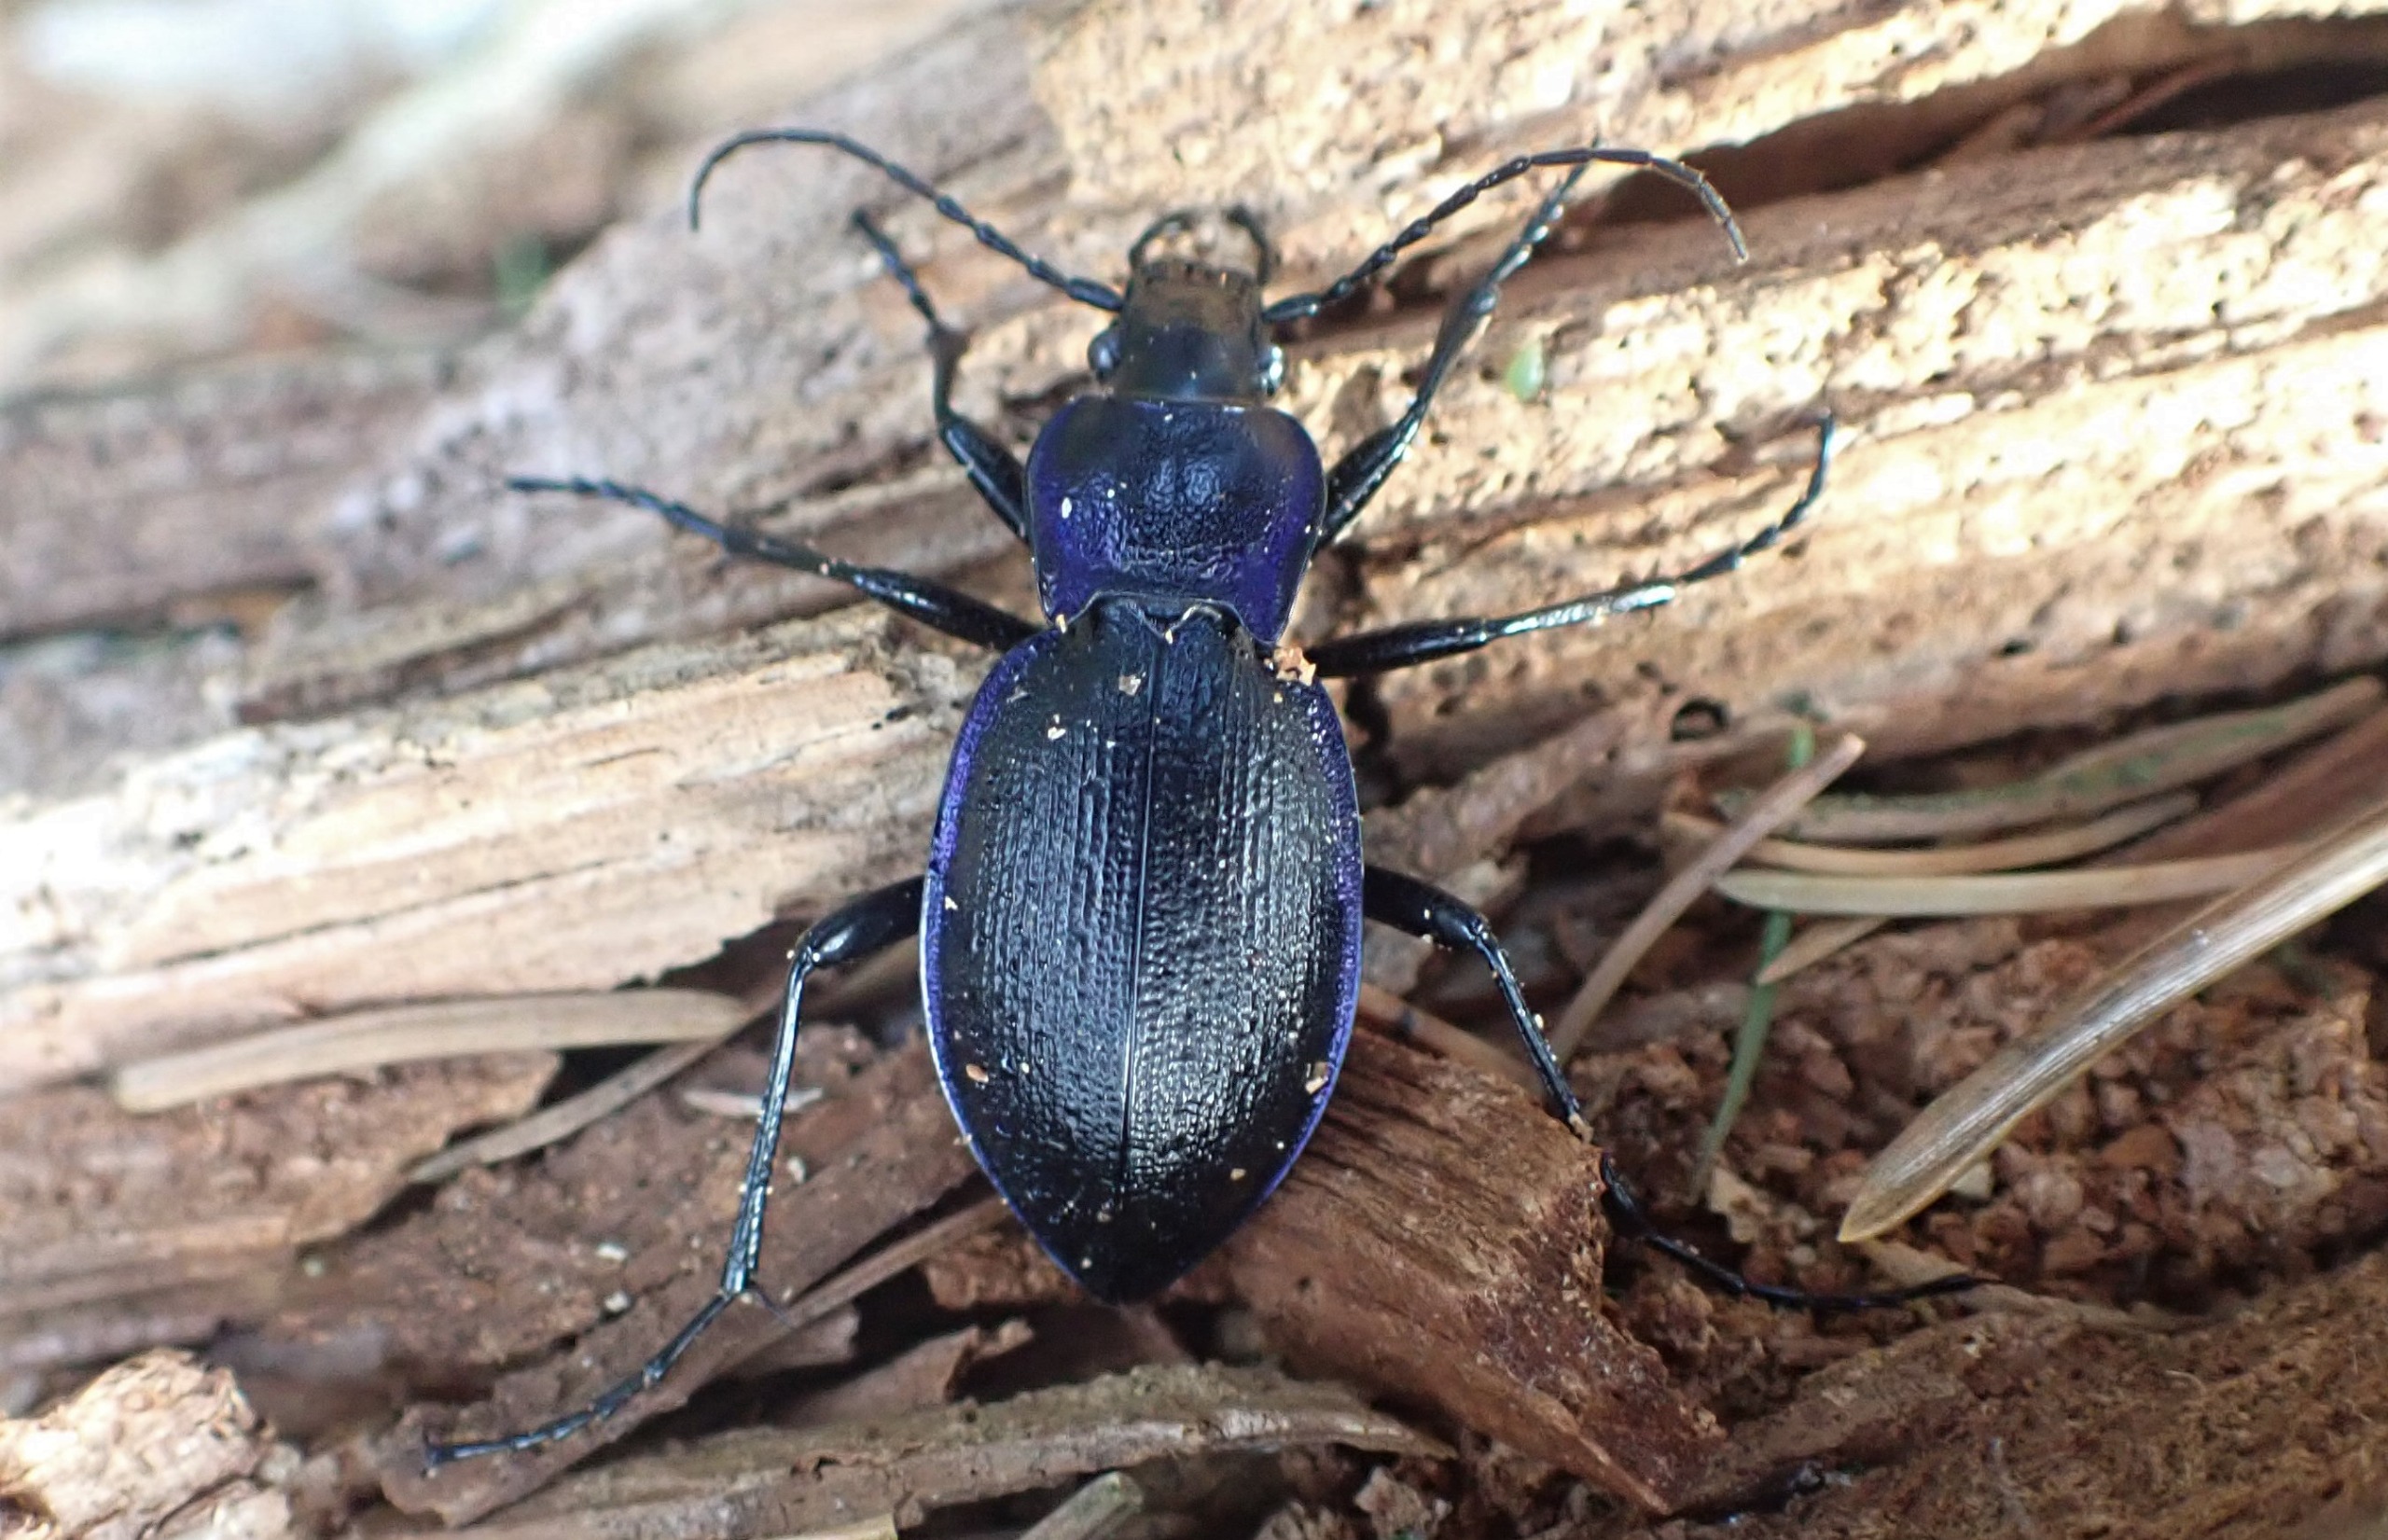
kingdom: Animalia
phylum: Arthropoda
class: Insecta
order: Coleoptera
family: Carabidae
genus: Carabus
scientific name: Carabus problematicus
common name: Jysk løber
